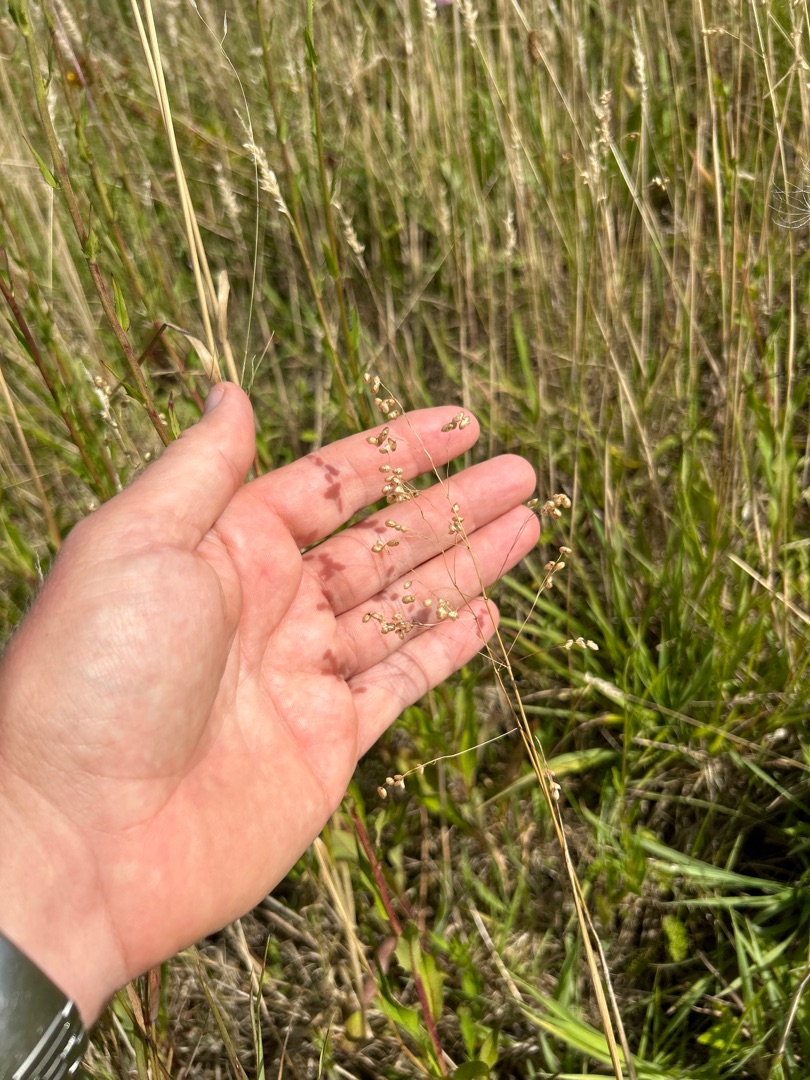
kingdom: Plantae
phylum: Tracheophyta
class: Liliopsida
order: Poales
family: Poaceae
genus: Briza
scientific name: Briza media
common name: Hjertegræs
